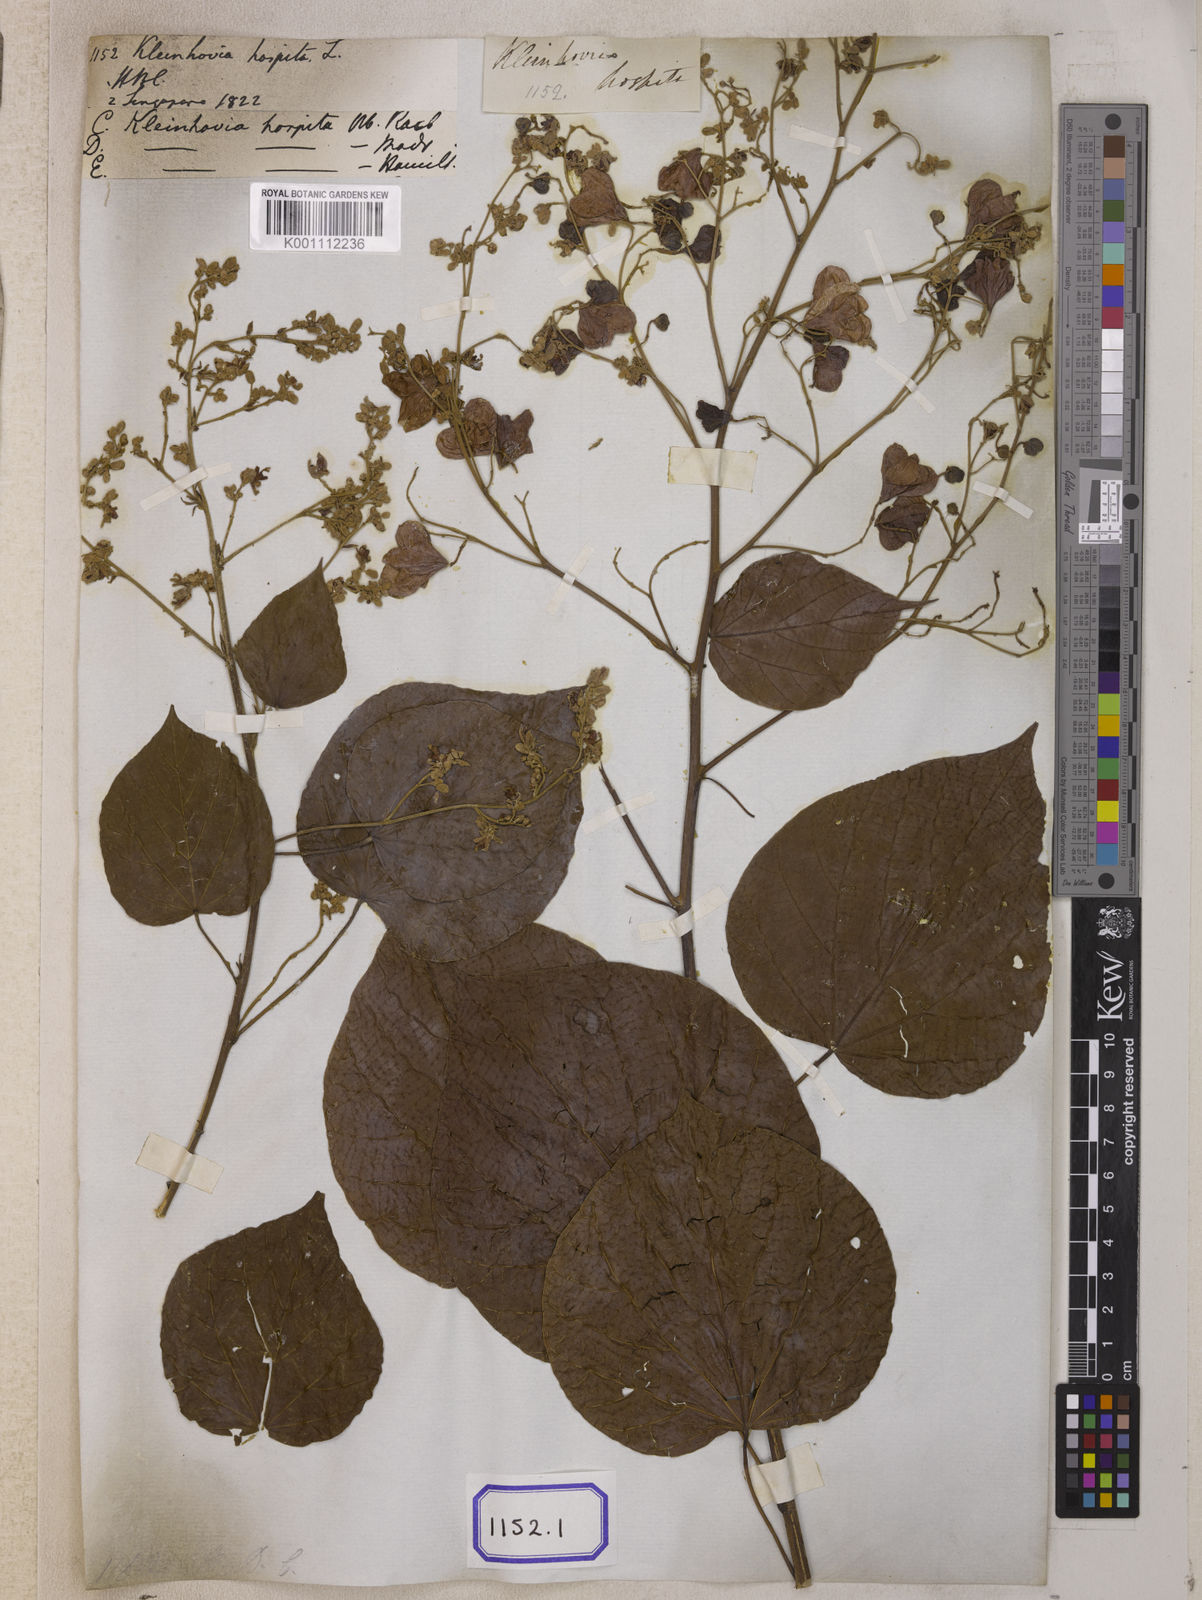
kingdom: Plantae
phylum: Tracheophyta
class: Magnoliopsida
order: Malvales
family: Malvaceae
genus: Kleinhovia
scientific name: Kleinhovia hospita
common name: Guest-tree
